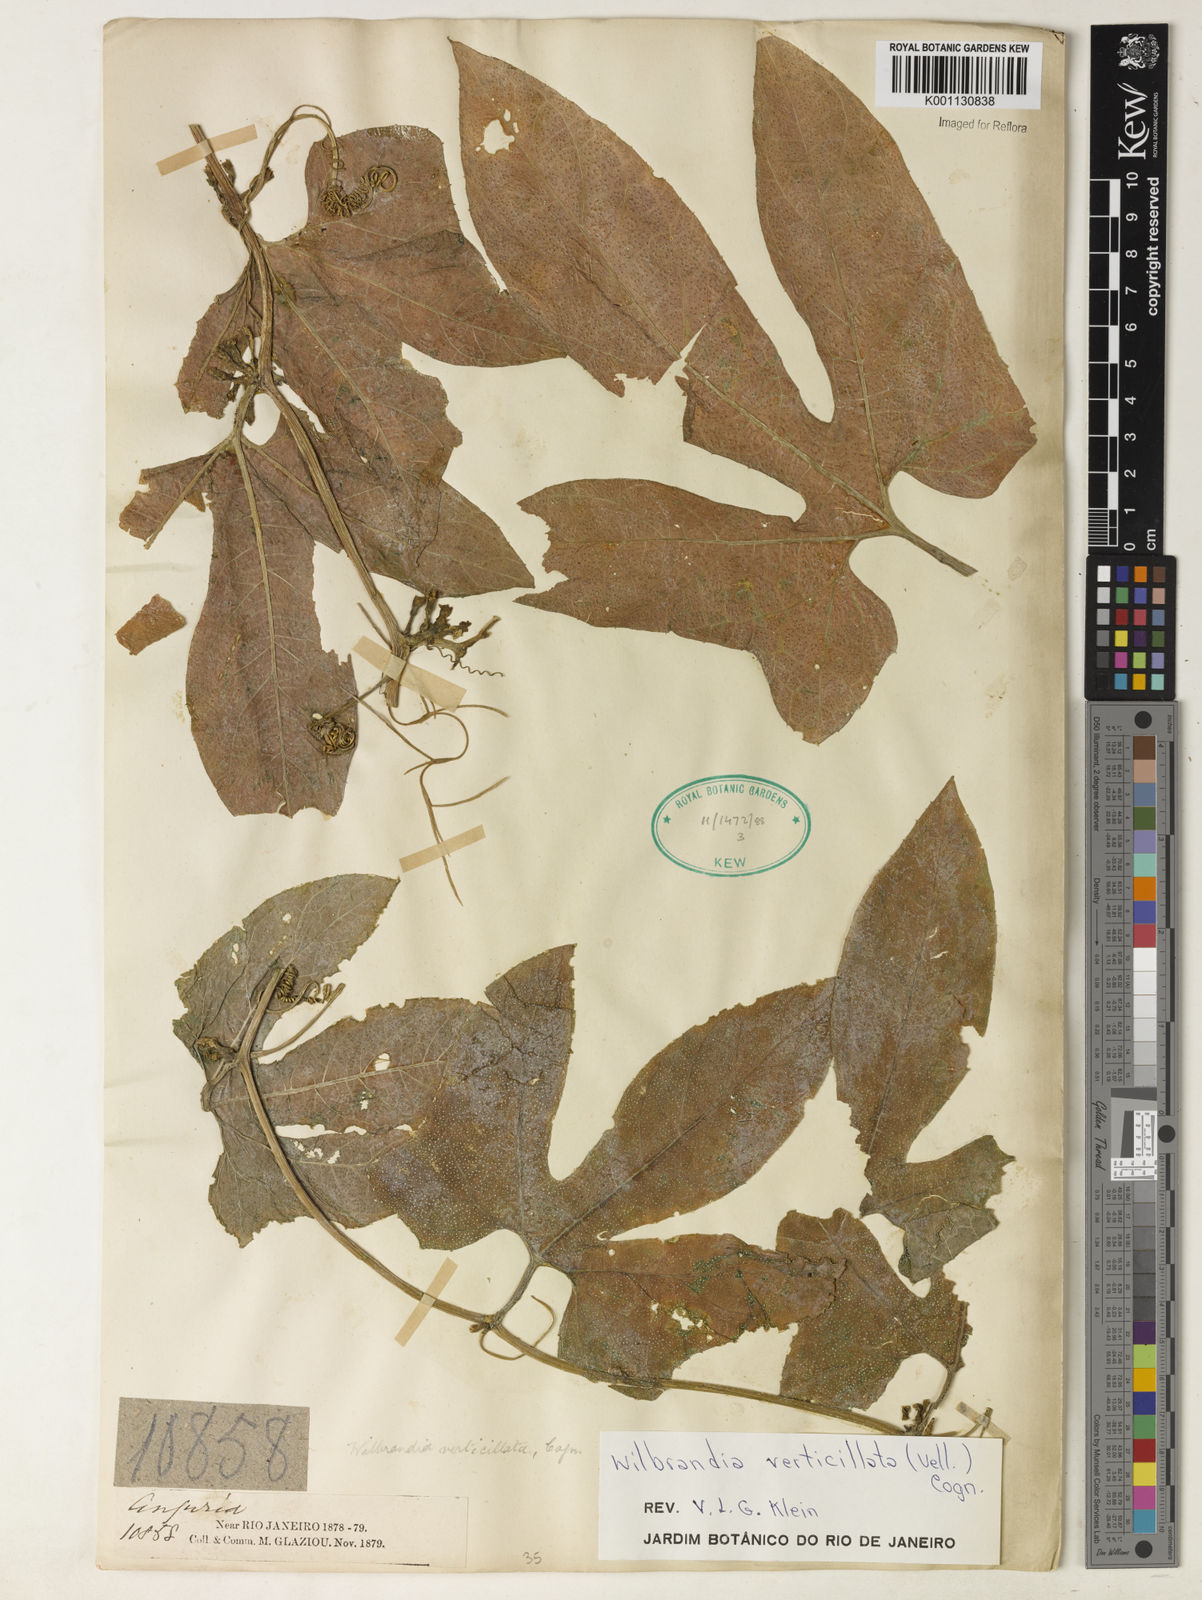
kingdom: Plantae
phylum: Tracheophyta
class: Magnoliopsida
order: Cucurbitales
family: Cucurbitaceae
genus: Wilbrandia
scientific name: Wilbrandia verticillata
